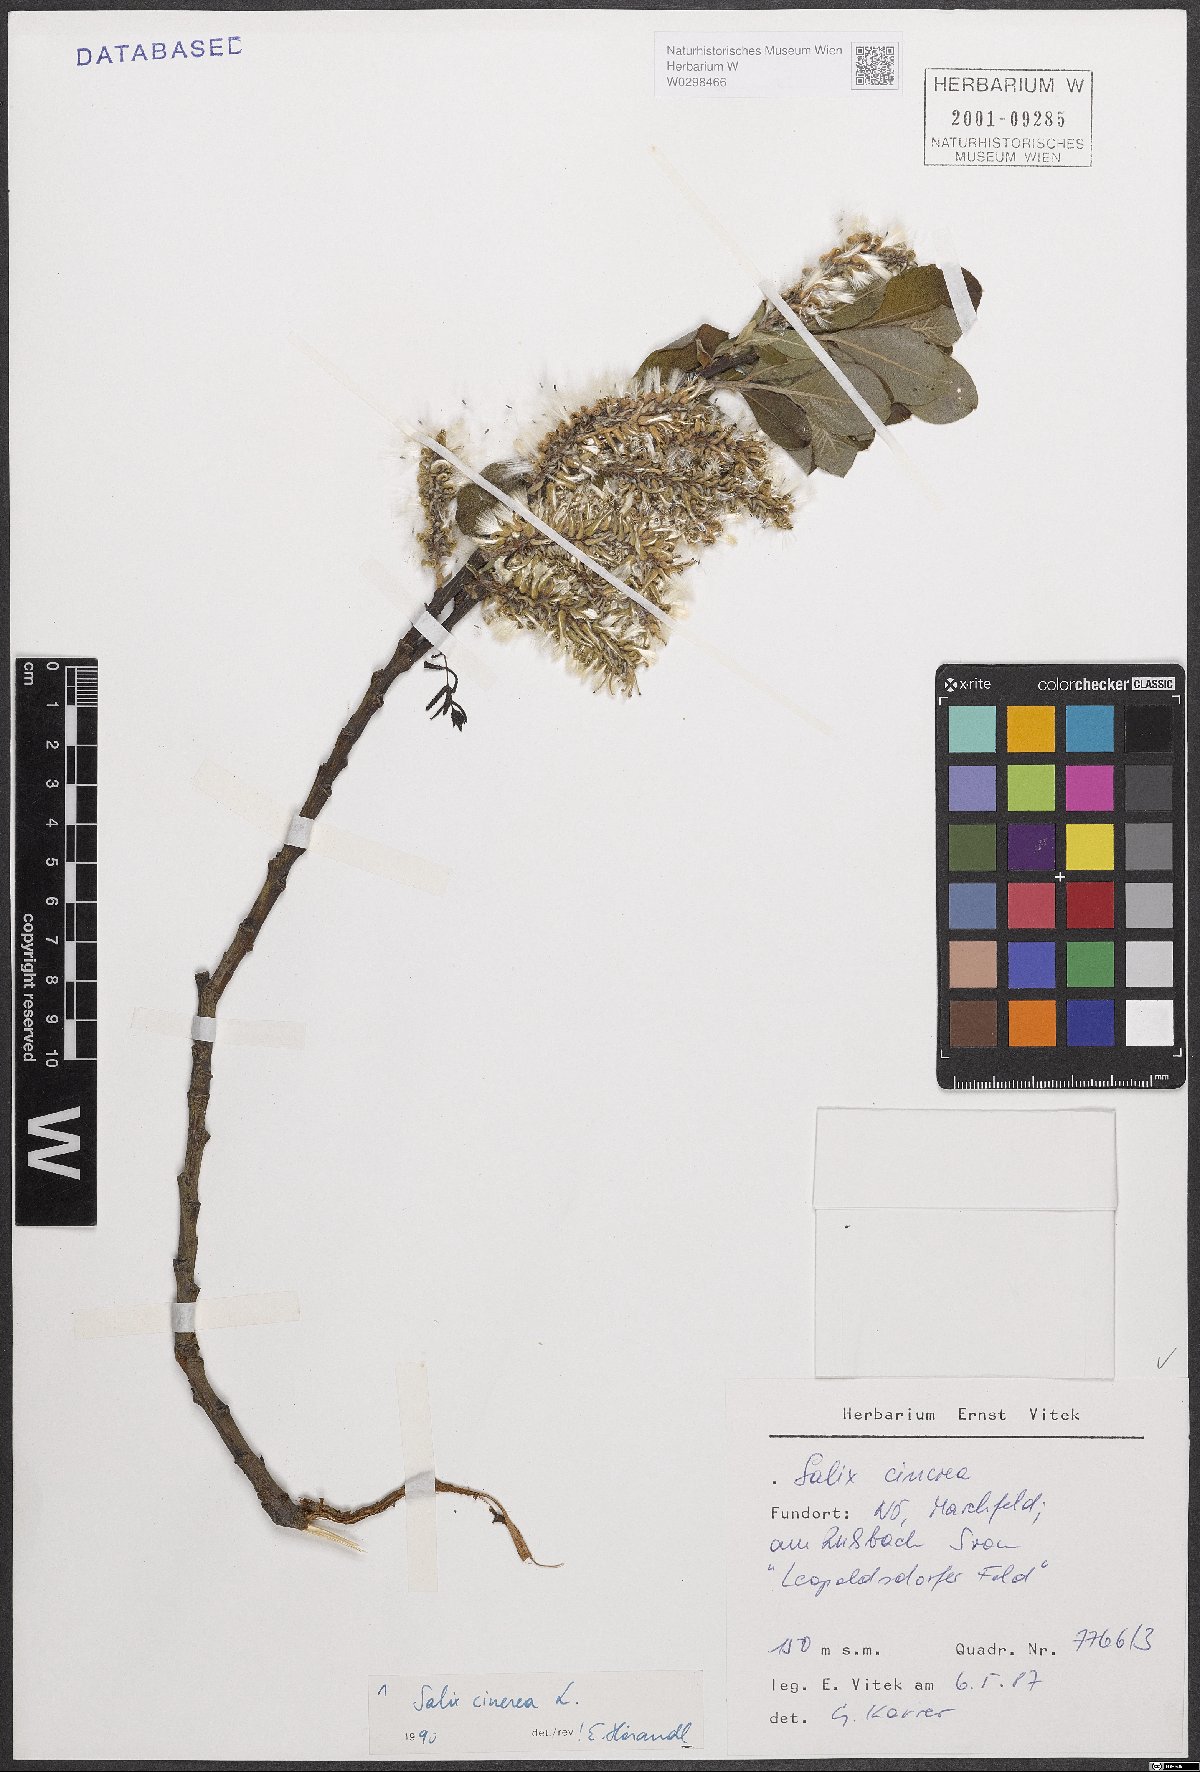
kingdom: Plantae
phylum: Tracheophyta
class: Magnoliopsida
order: Malpighiales
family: Salicaceae
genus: Salix
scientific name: Salix cinerea
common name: Common sallow
